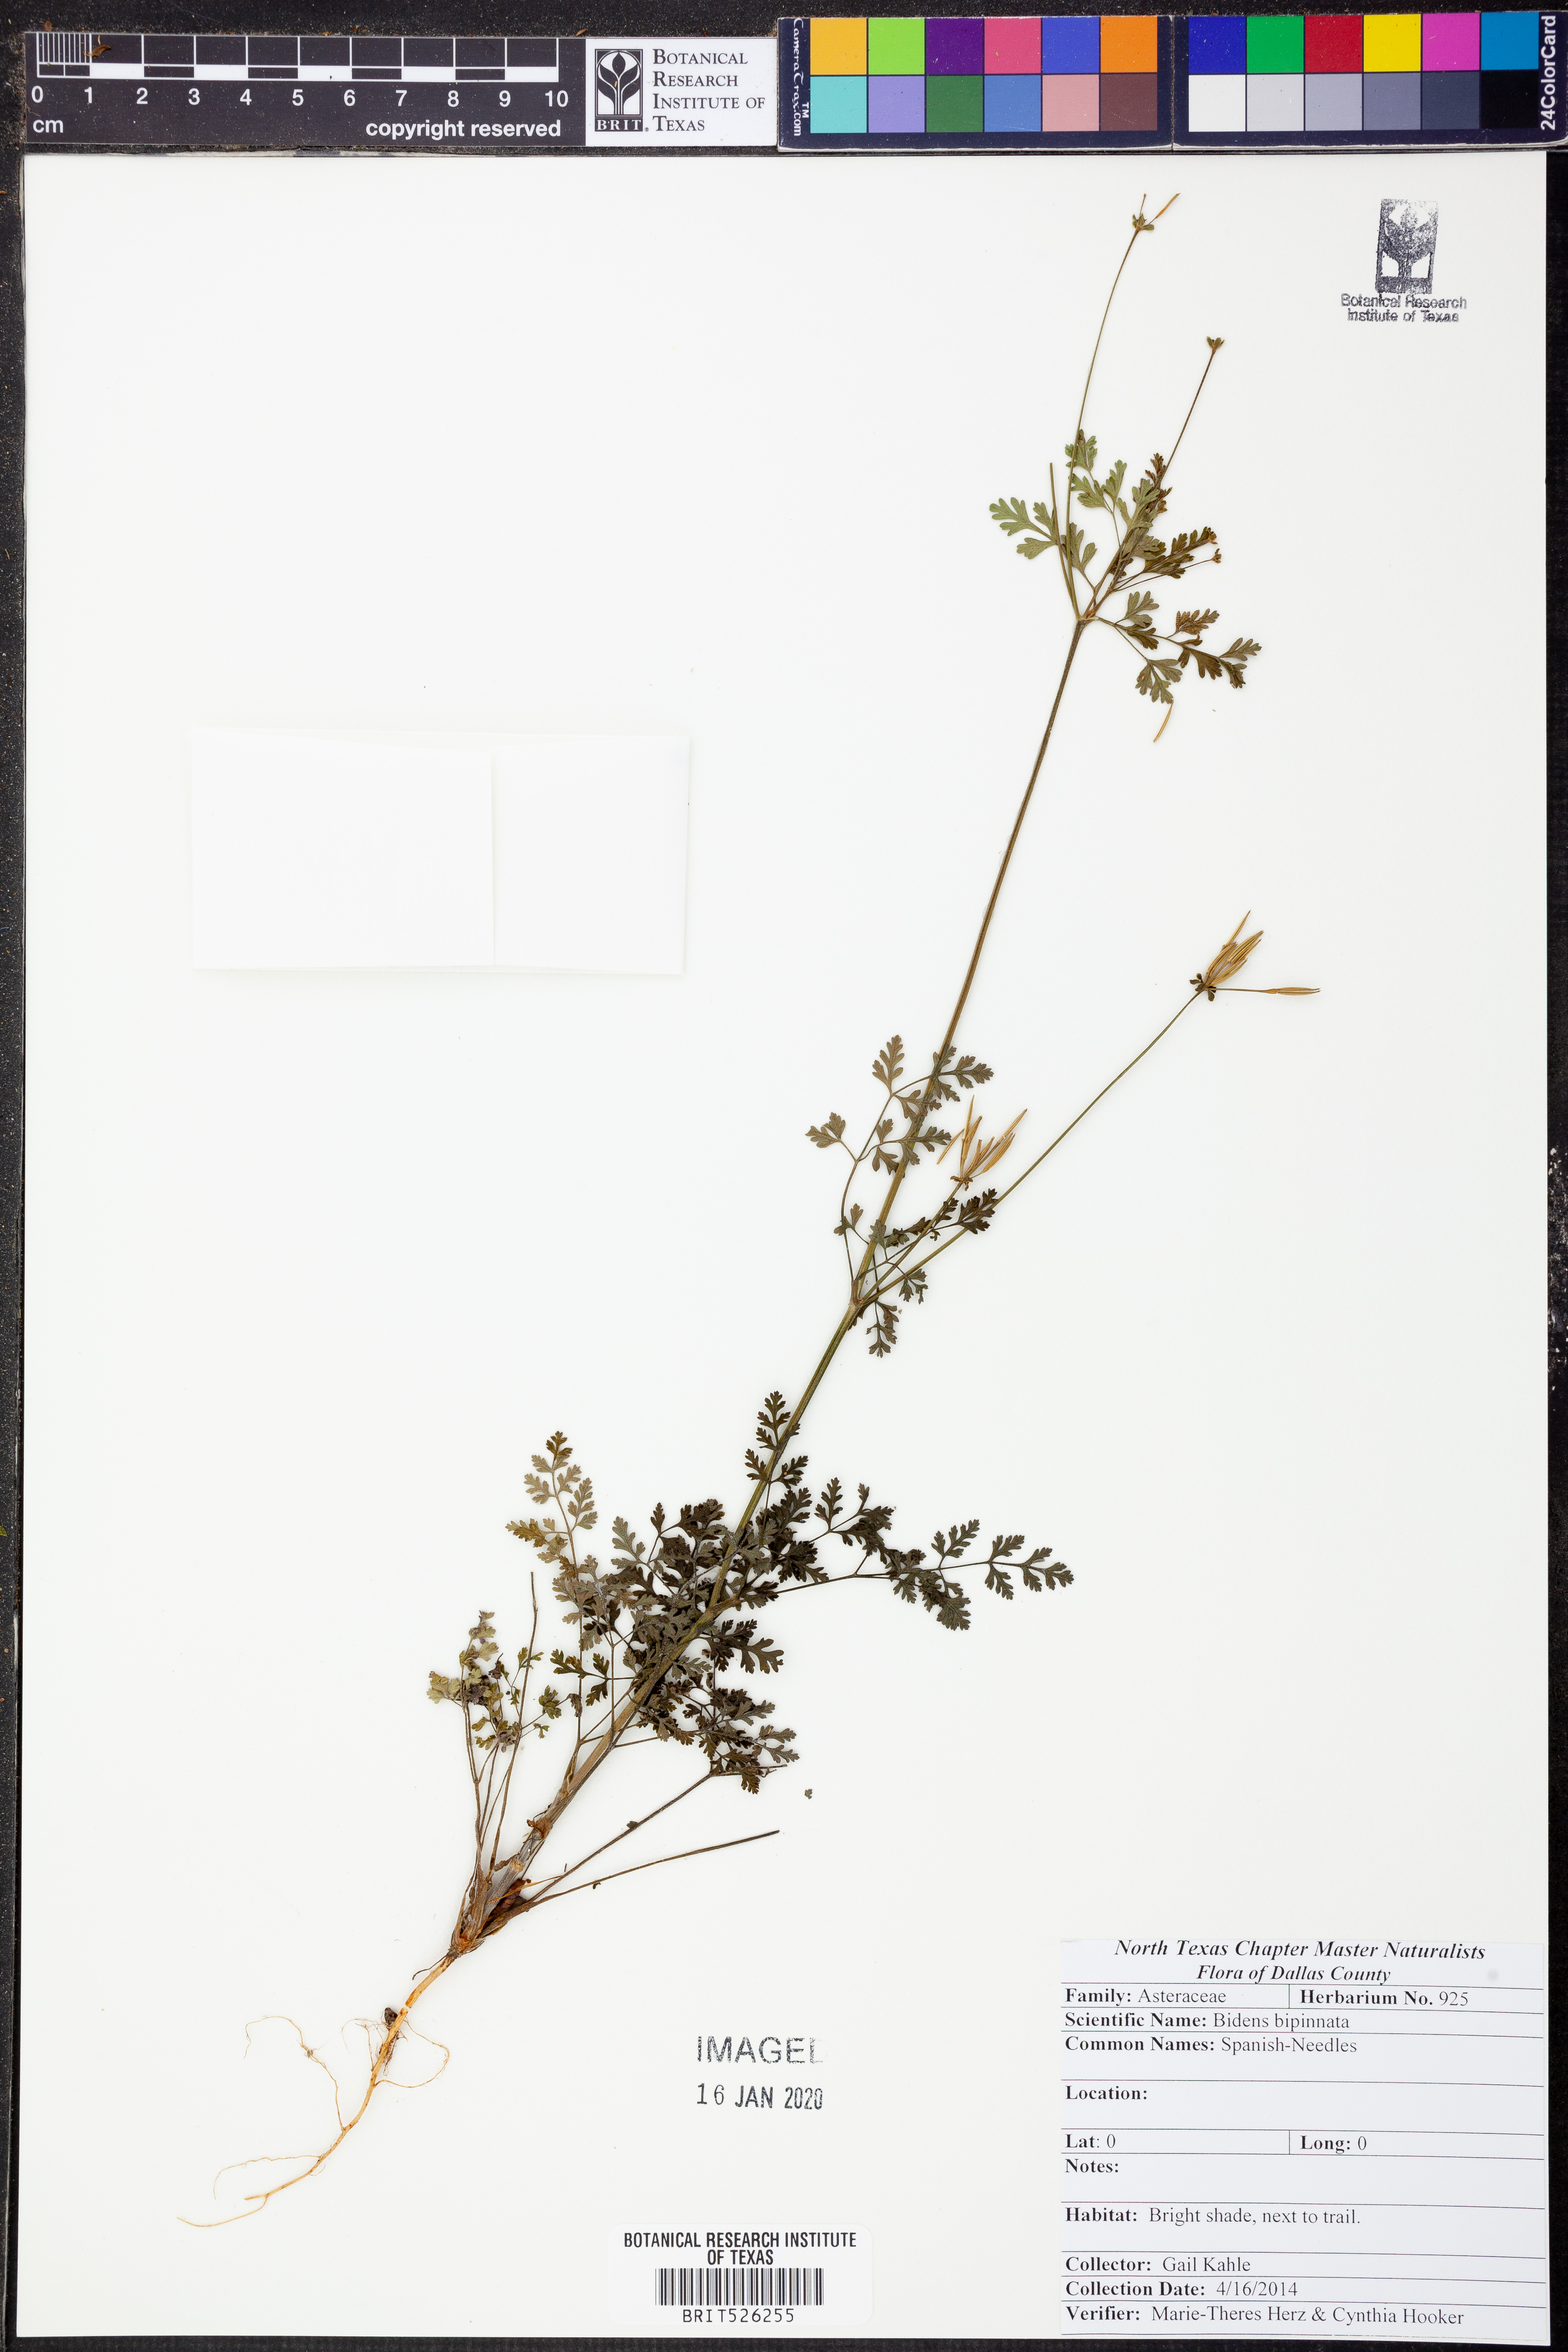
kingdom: Plantae
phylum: Tracheophyta
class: Magnoliopsida
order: Asterales
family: Asteraceae
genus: Bidens
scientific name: Bidens bipinnata
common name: Spanish-needles
